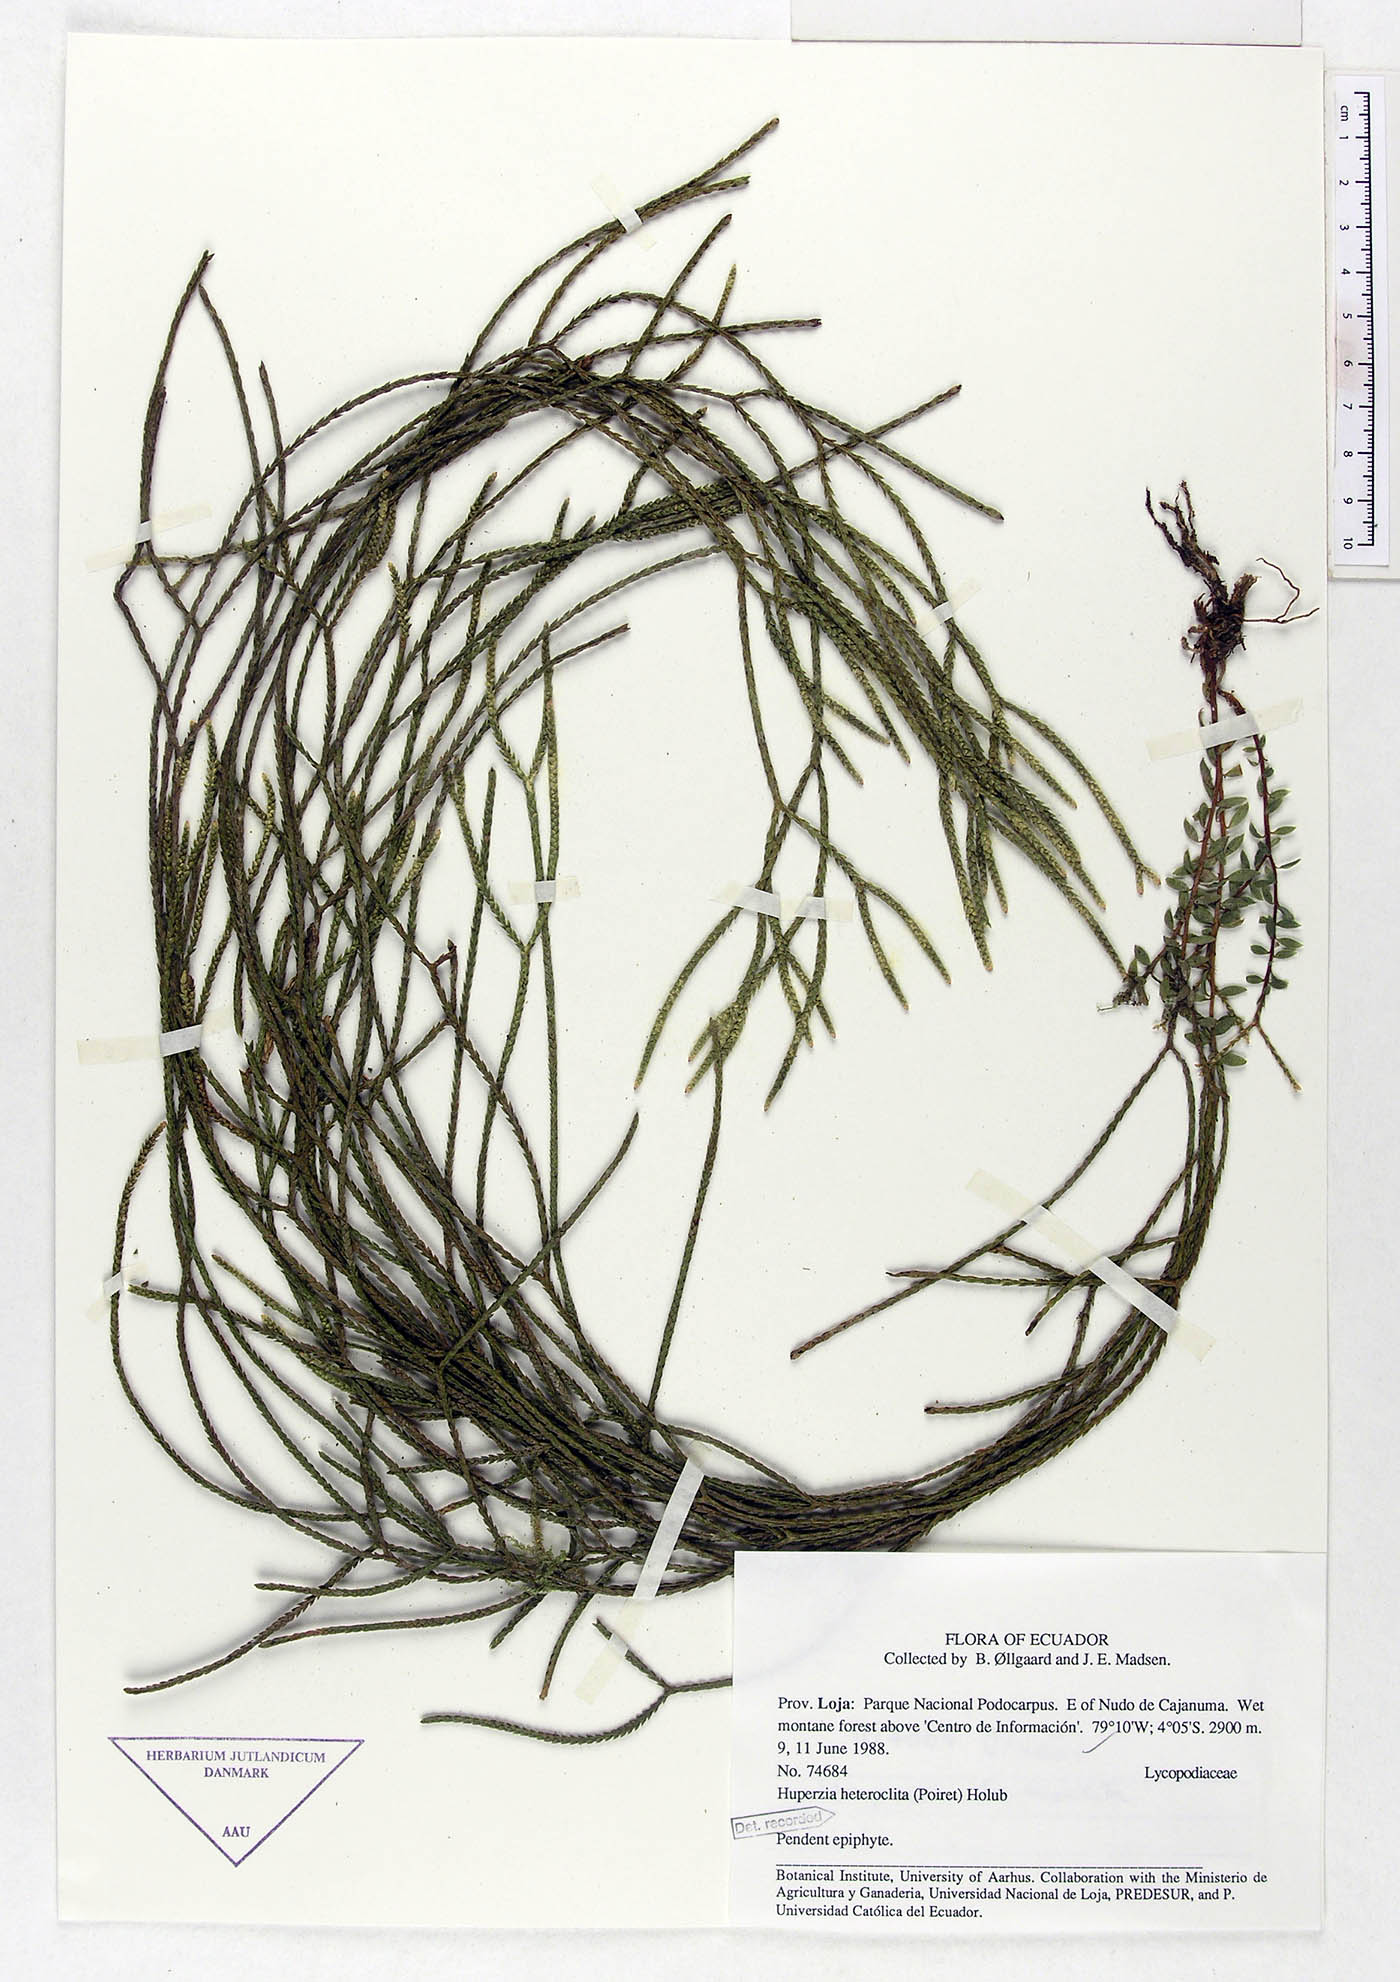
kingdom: Plantae
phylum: Tracheophyta
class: Lycopodiopsida
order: Lycopodiales
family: Lycopodiaceae
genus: Phlegmariurus
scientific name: Phlegmariurus heteroclitus
